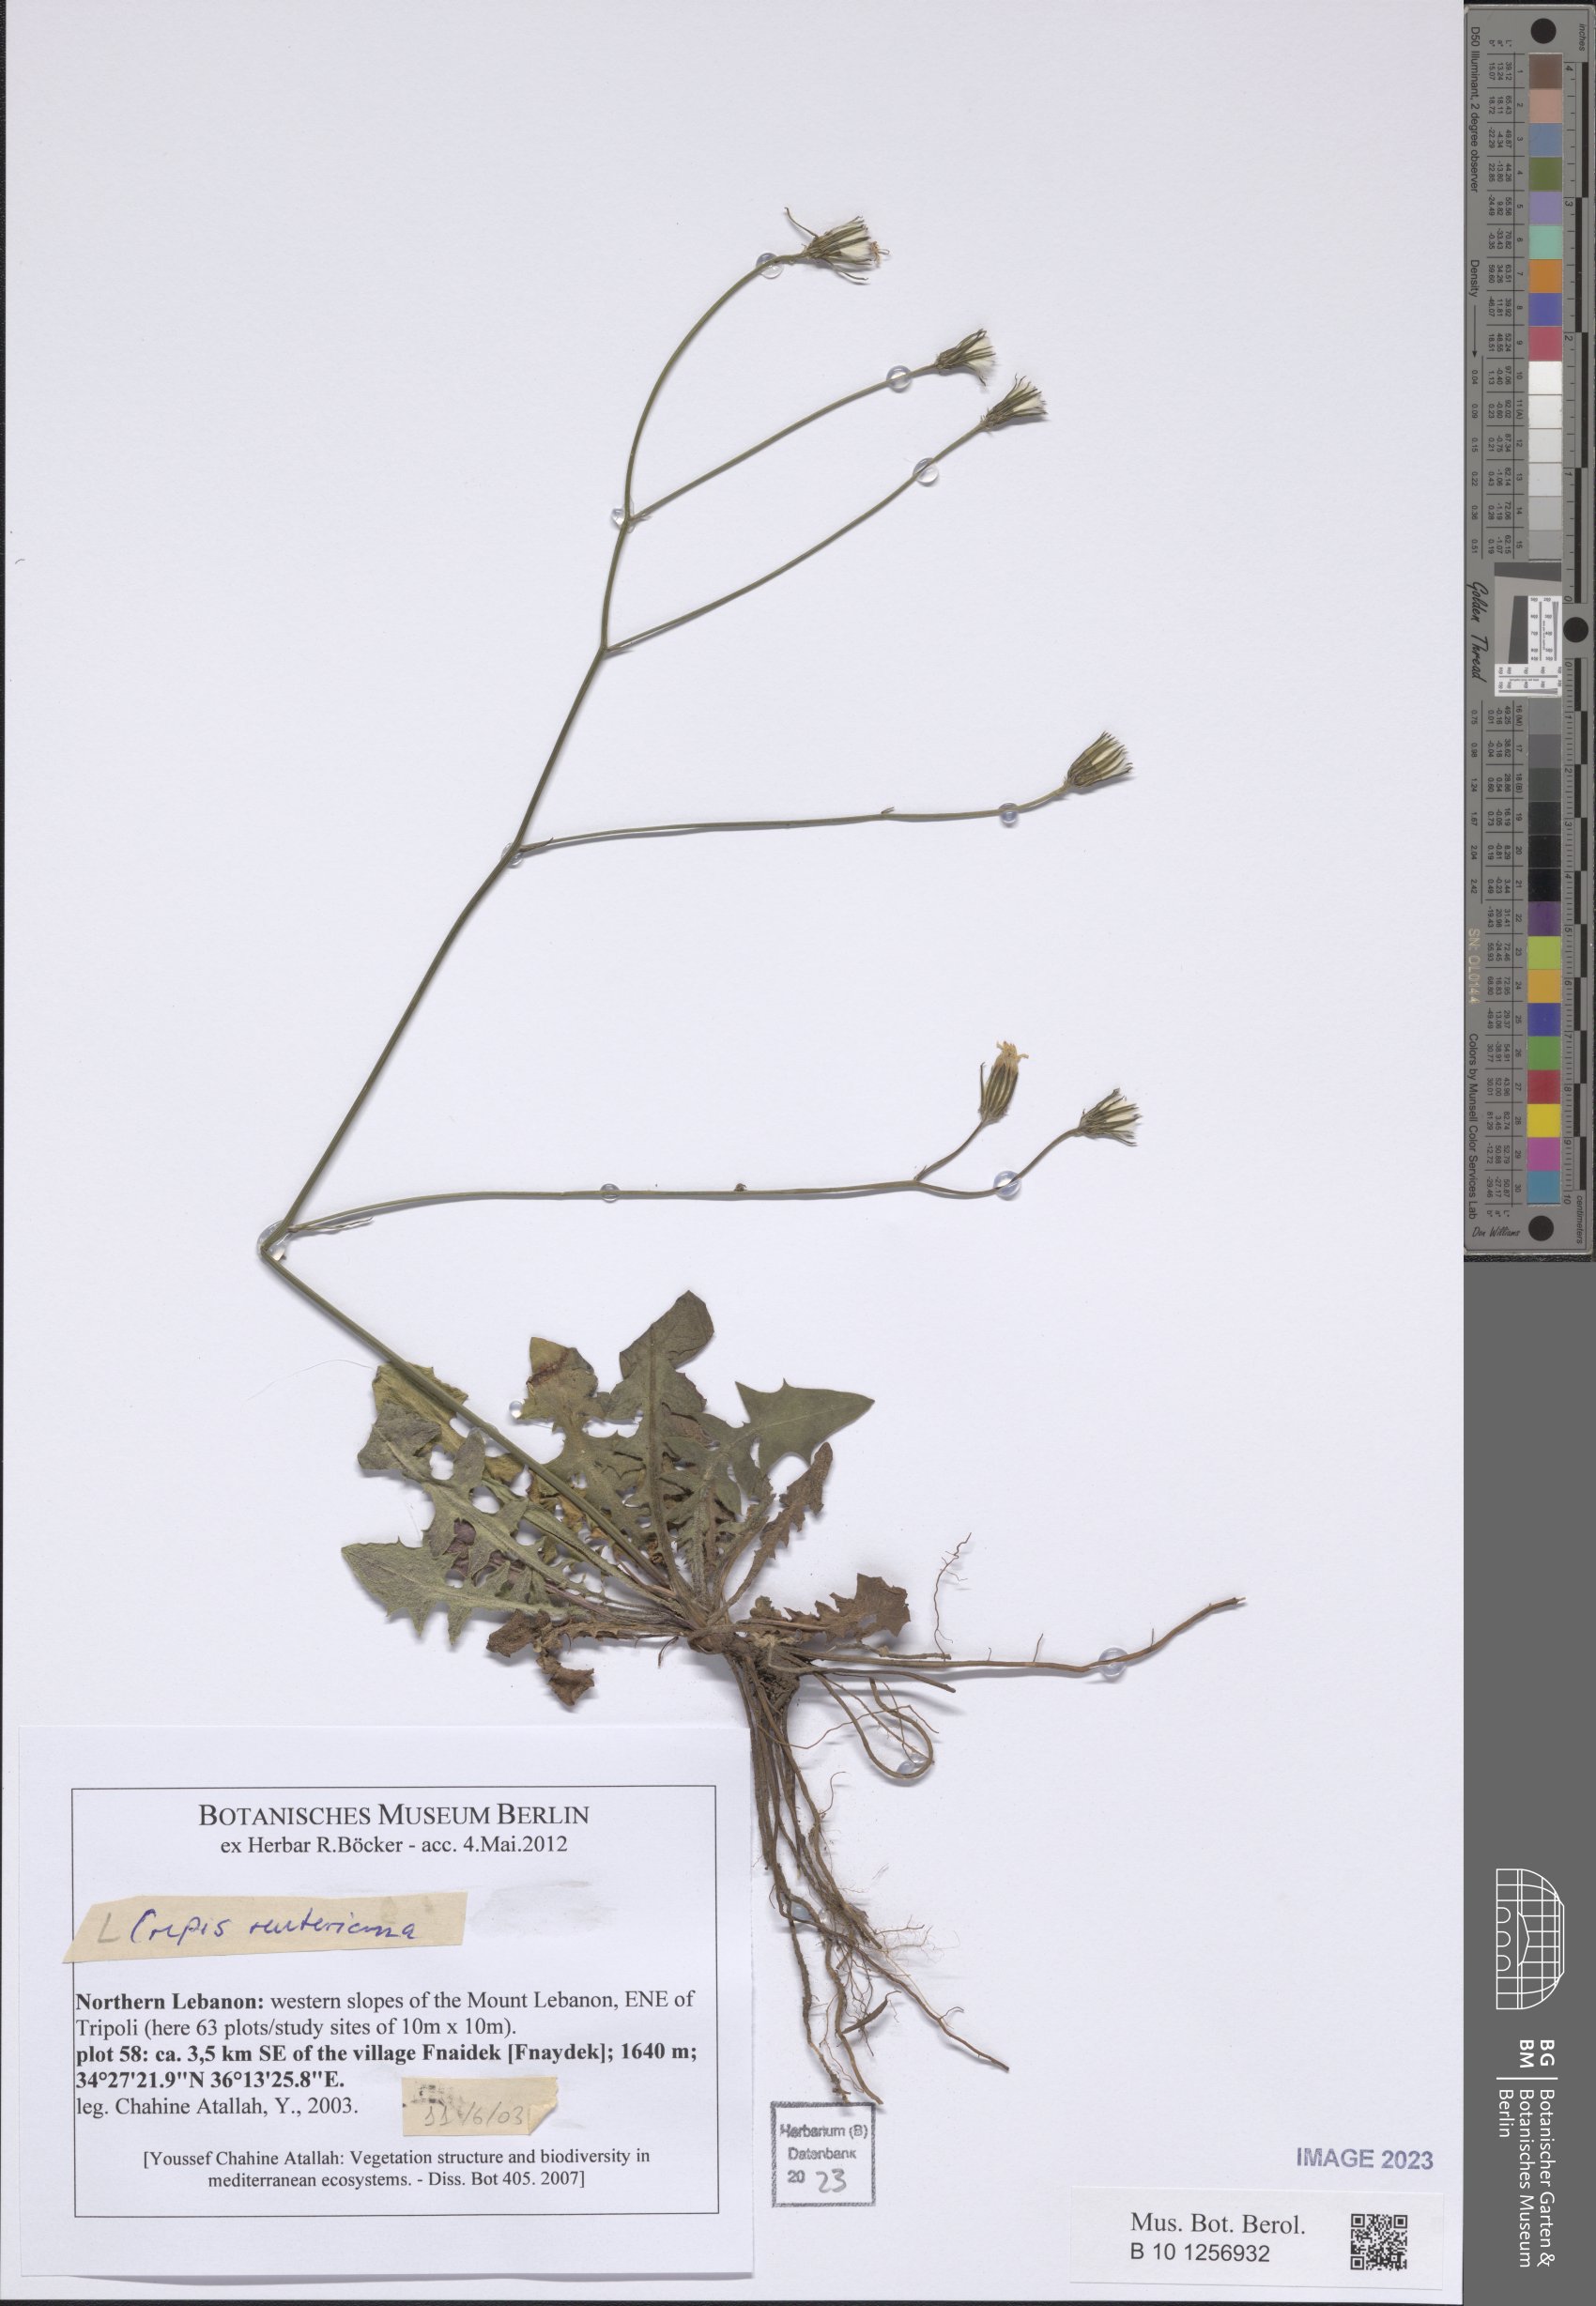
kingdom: Plantae
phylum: Tracheophyta
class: Magnoliopsida
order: Asterales
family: Asteraceae
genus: Crepis
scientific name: Crepis reuteriana
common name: Hawk's-beard
